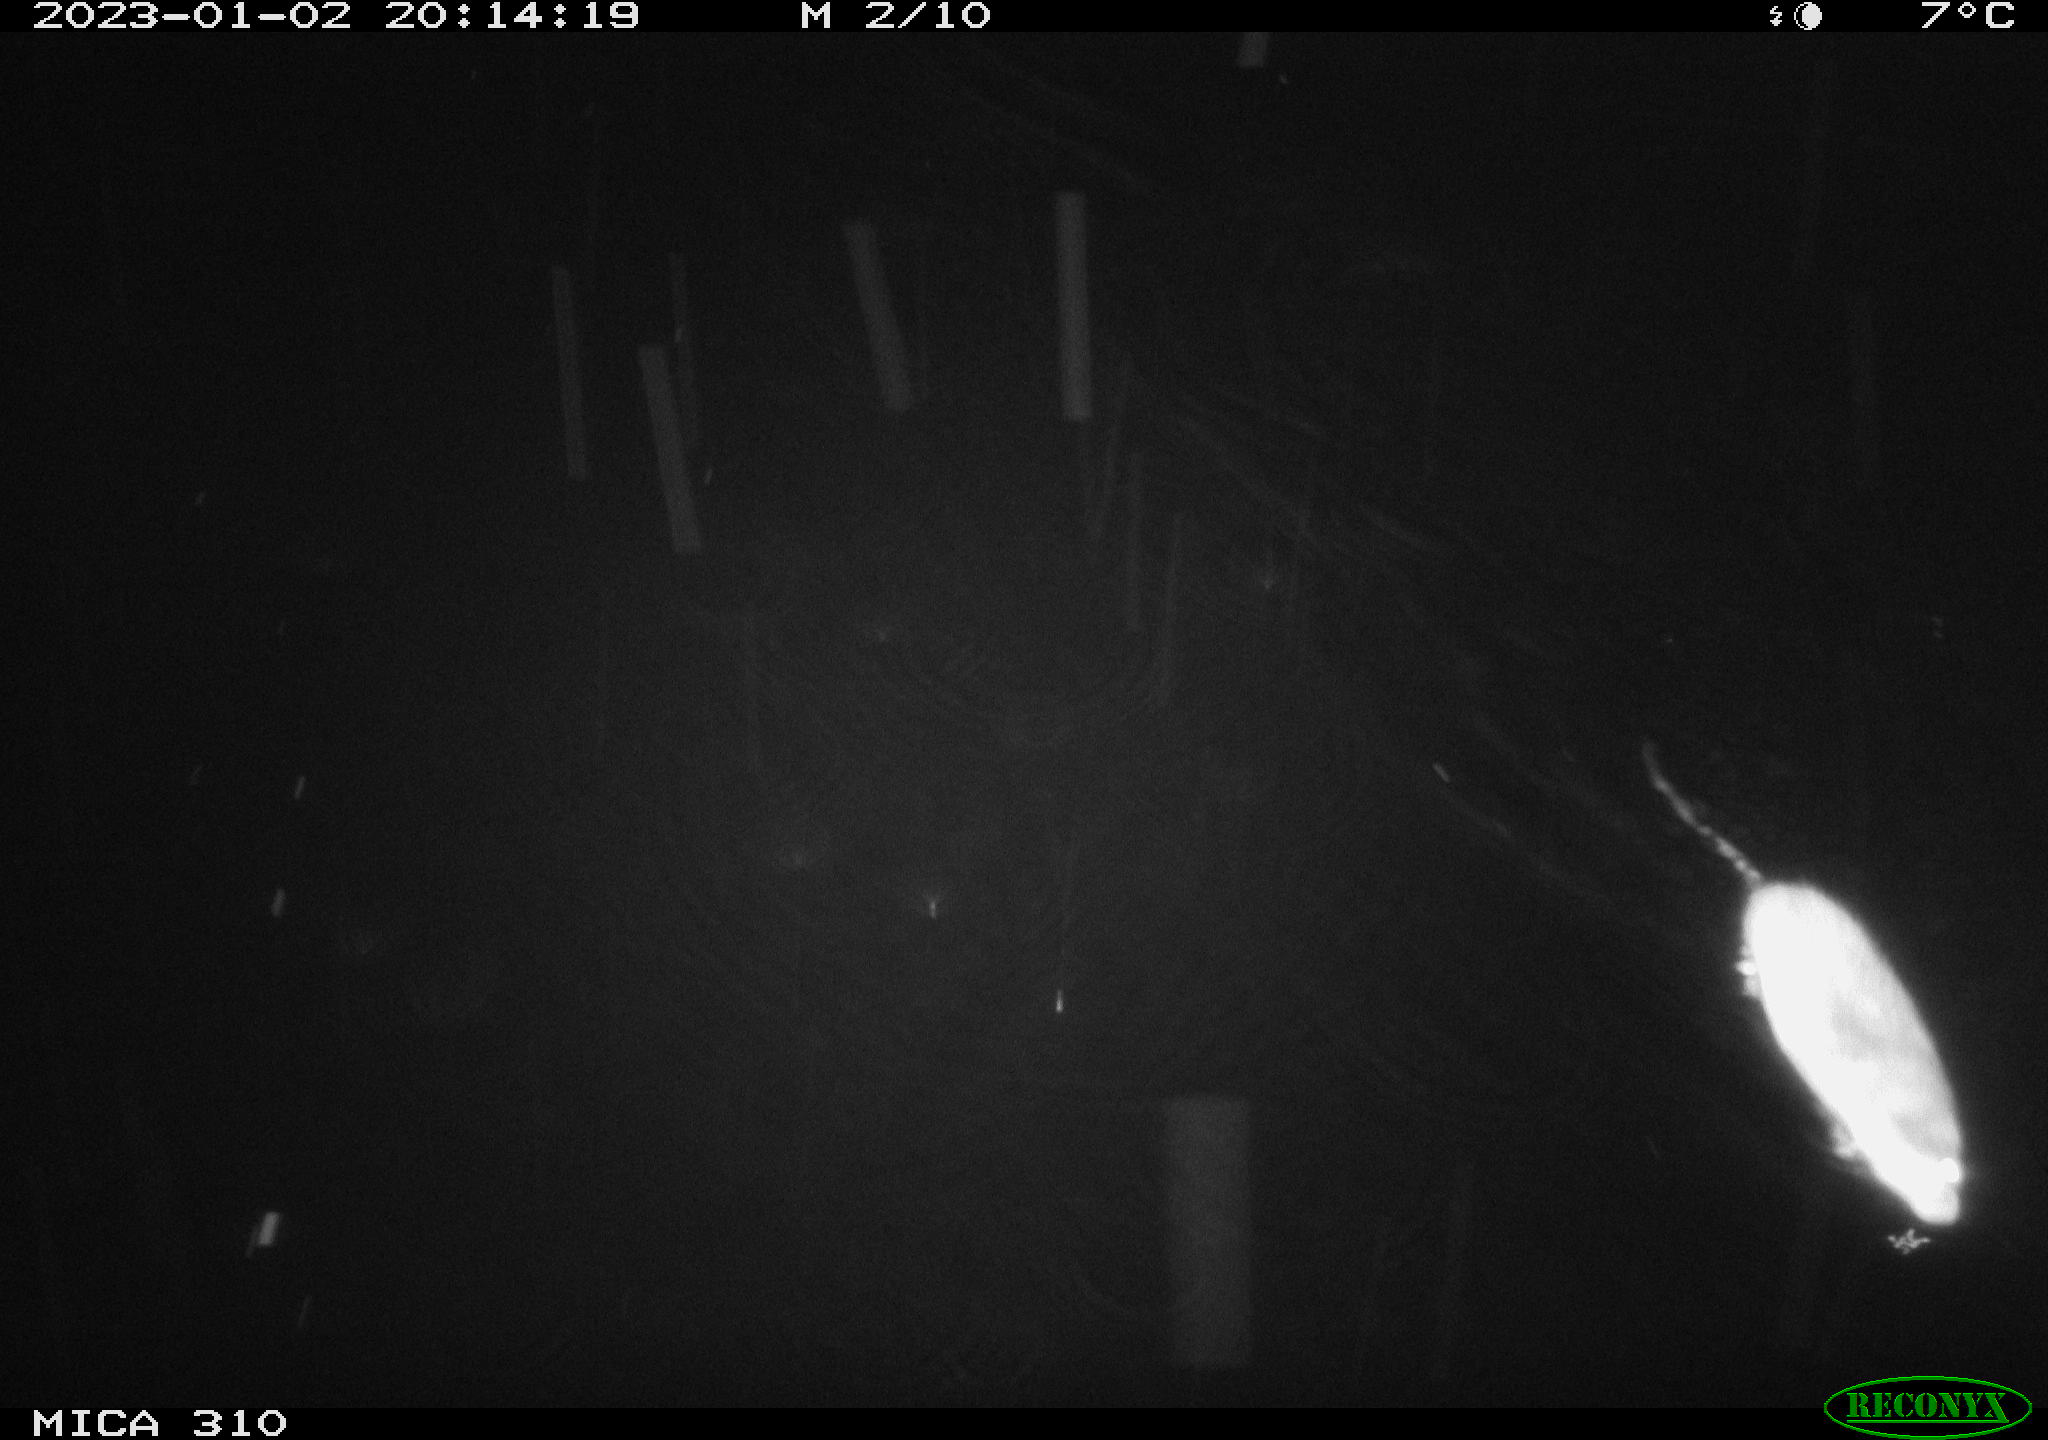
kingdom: Animalia
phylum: Chordata
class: Mammalia
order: Rodentia
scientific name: Rodentia
